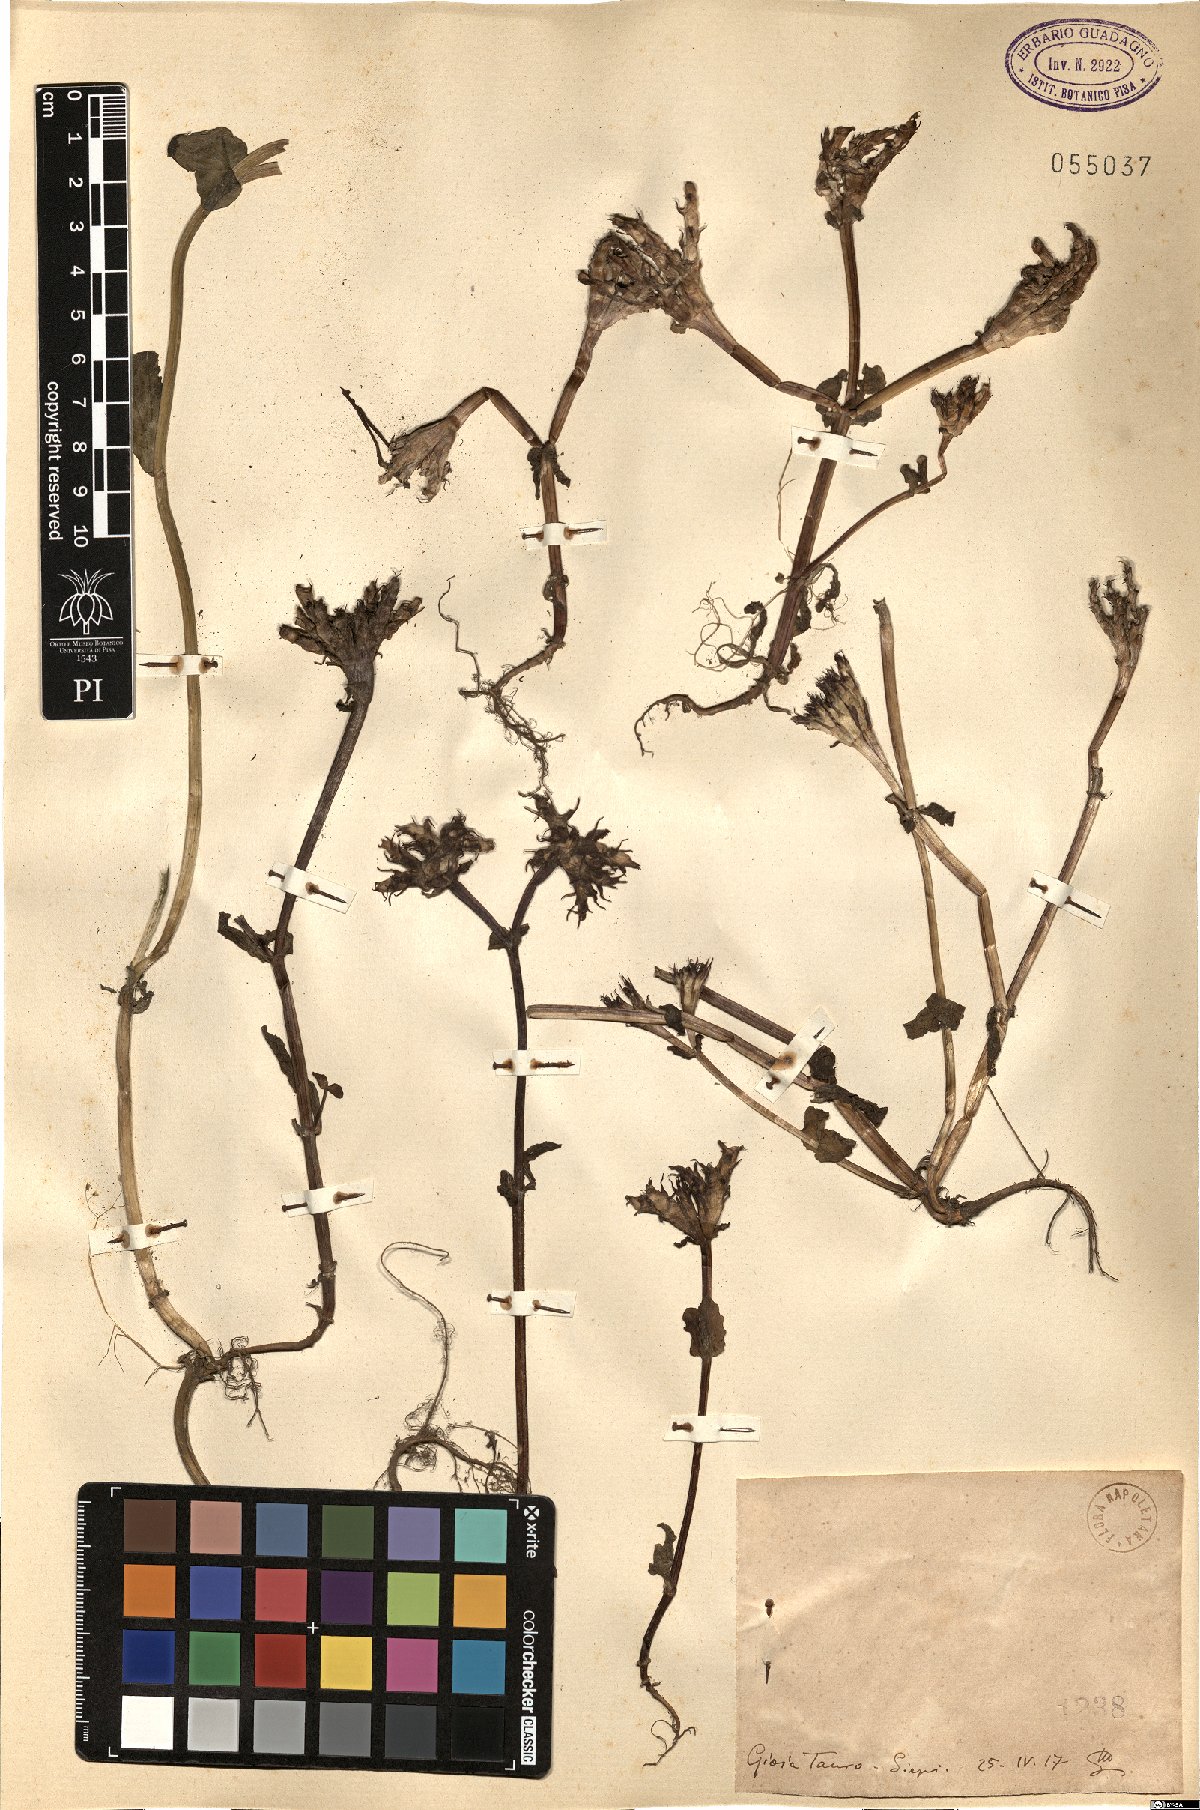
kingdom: Plantae
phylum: Tracheophyta
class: Magnoliopsida
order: Dipsacales
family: Caprifoliaceae
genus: Fedia
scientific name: Fedia
